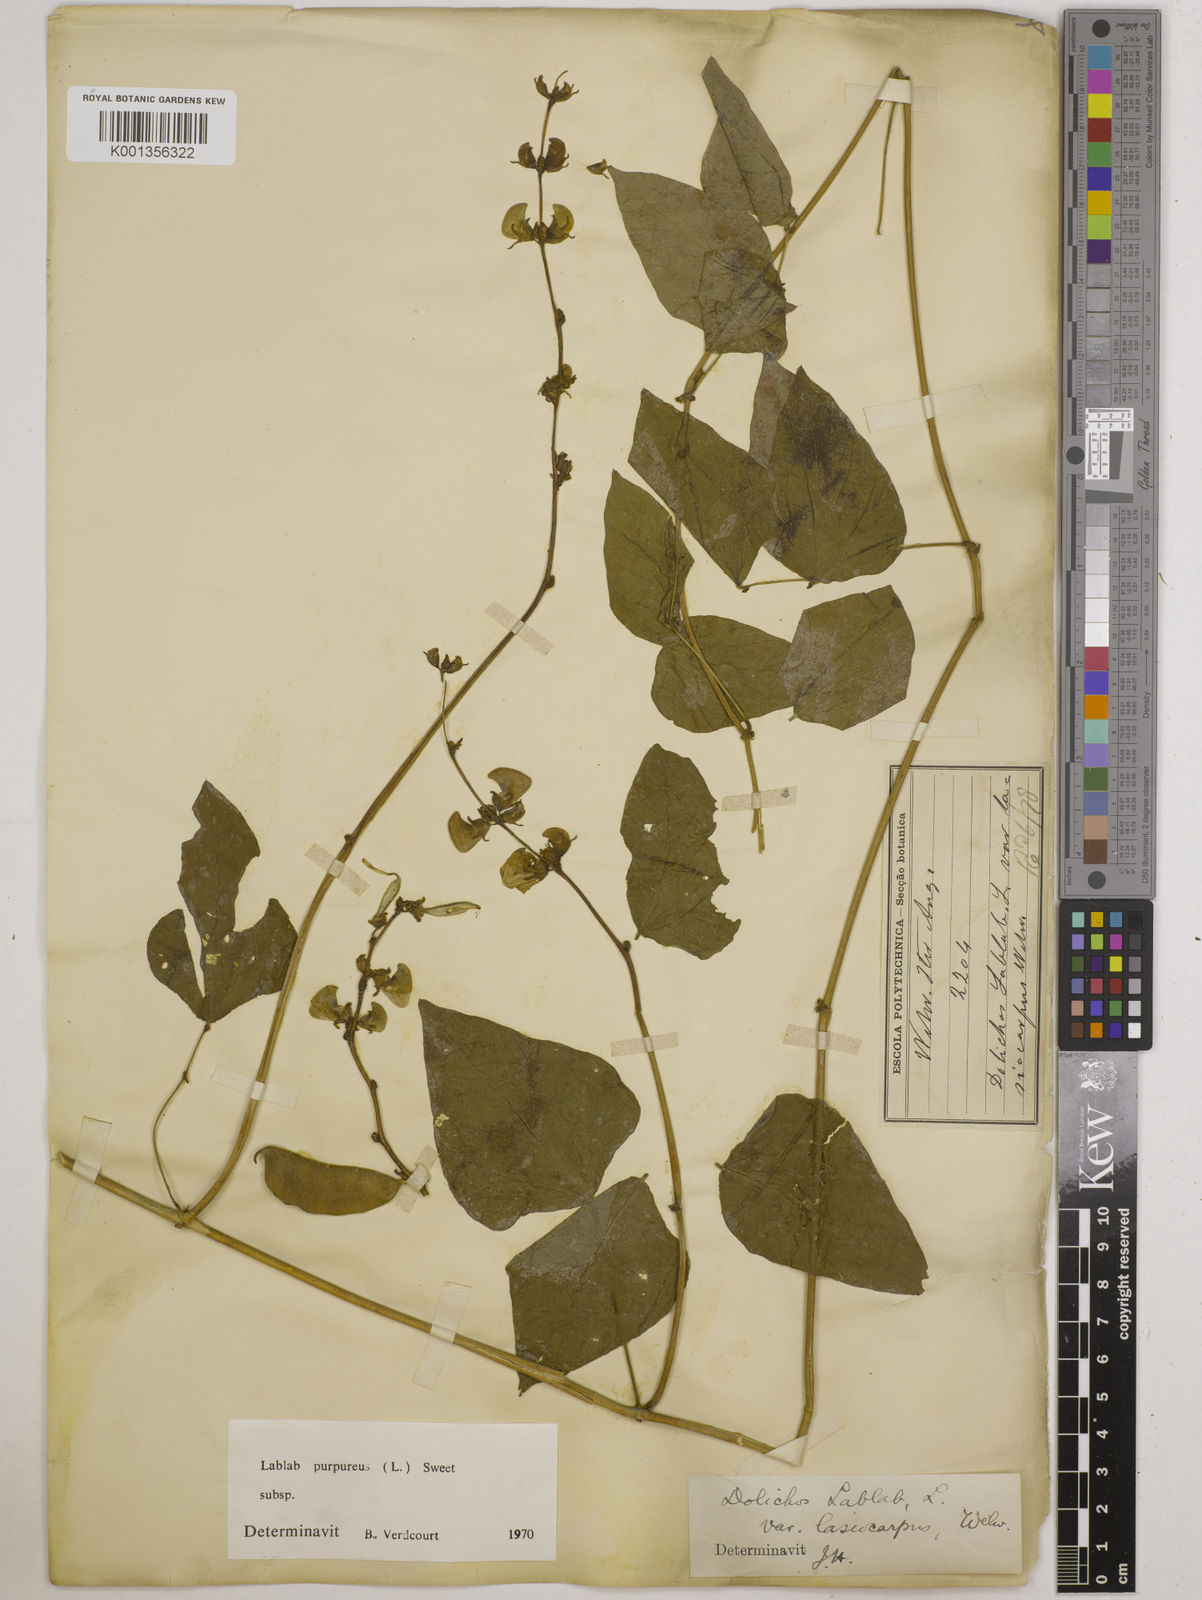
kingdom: Plantae
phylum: Tracheophyta
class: Magnoliopsida
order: Fabales
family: Fabaceae
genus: Lablab
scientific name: Lablab purpureus
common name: Lablab-bean
